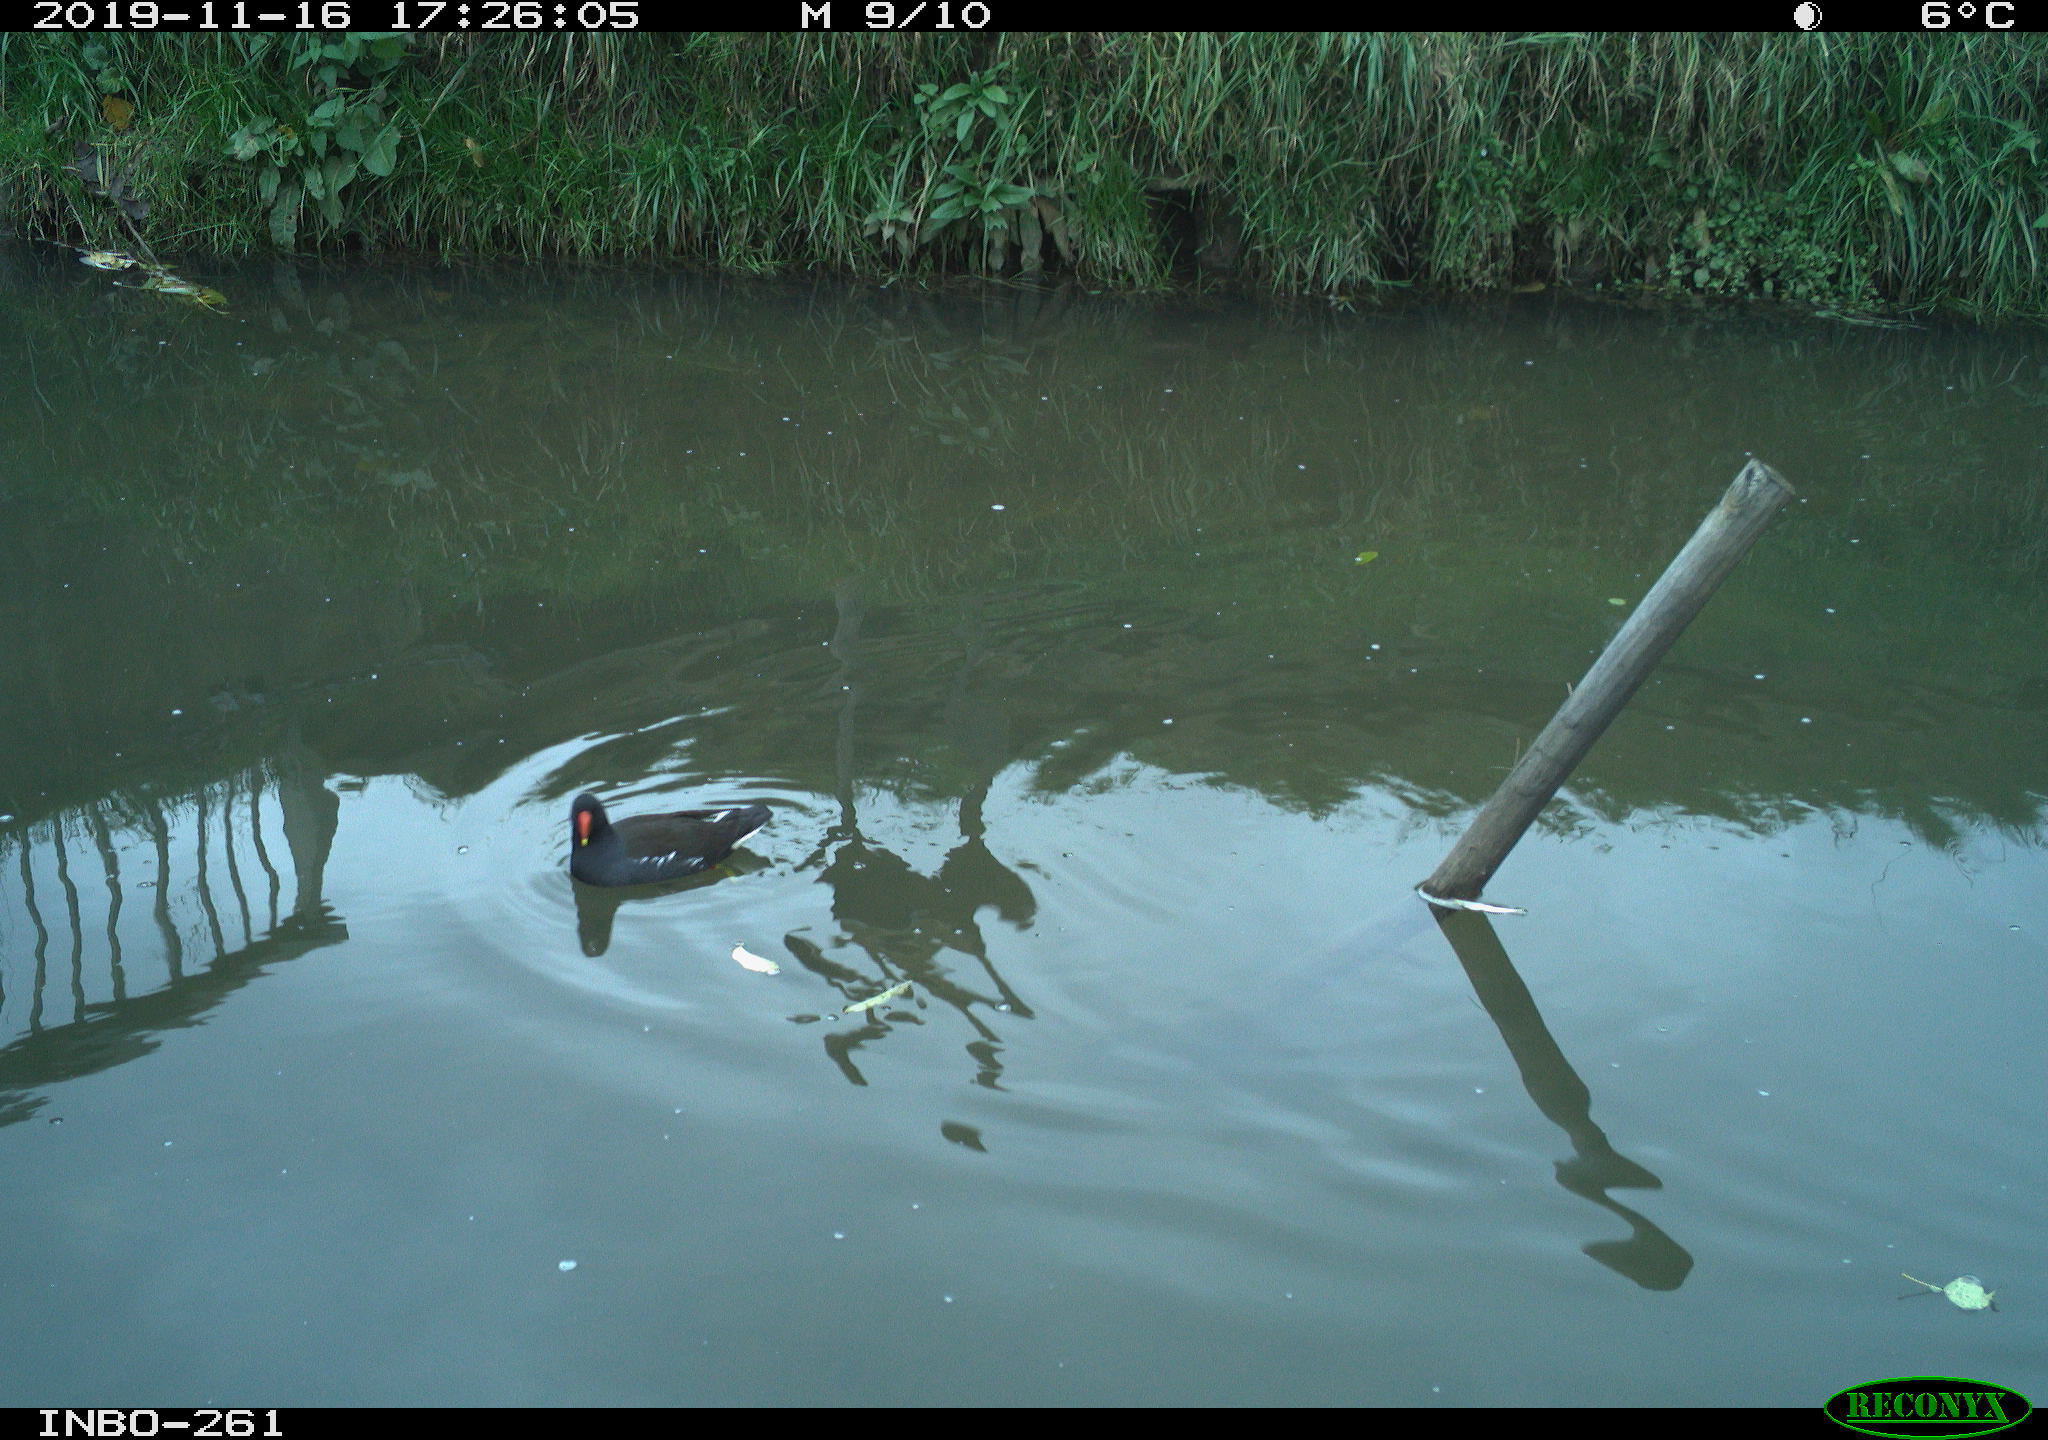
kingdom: Animalia
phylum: Chordata
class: Aves
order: Gruiformes
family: Rallidae
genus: Gallinula
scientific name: Gallinula chloropus
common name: Common moorhen
